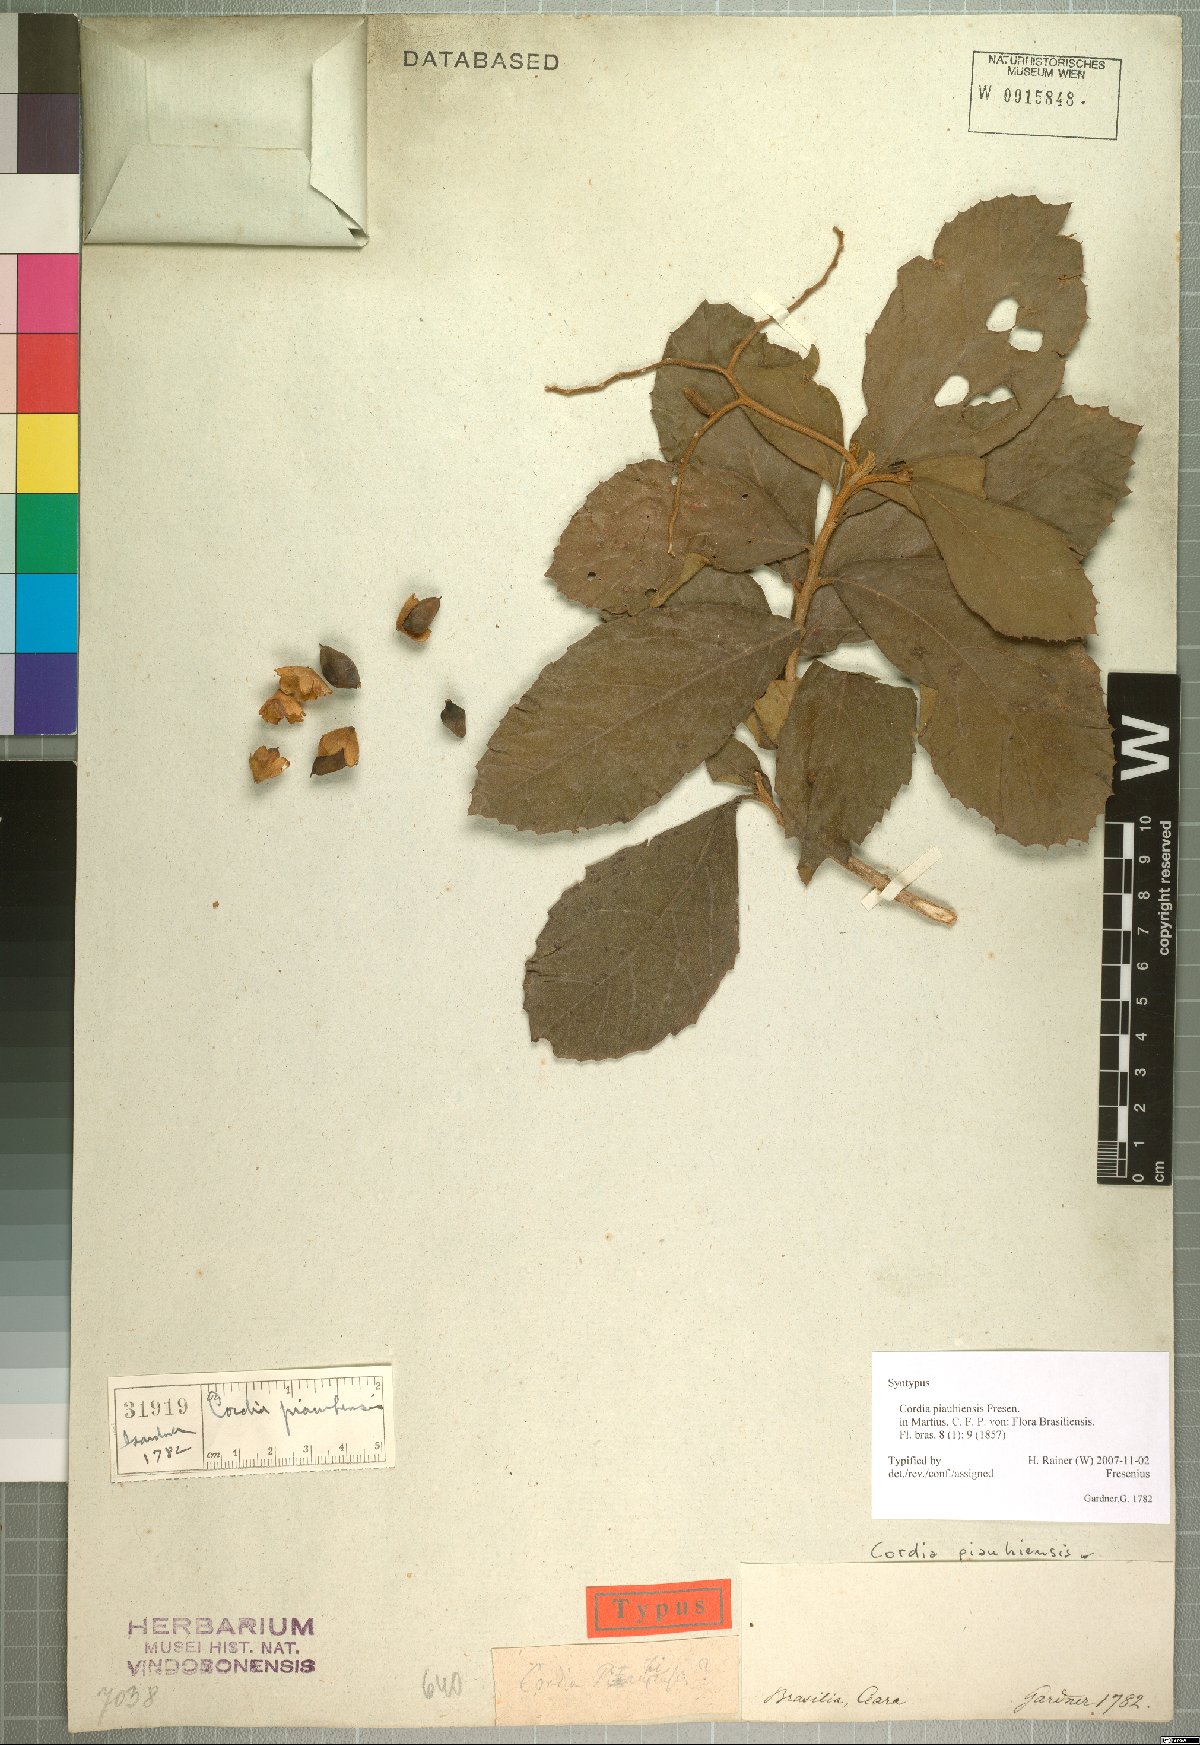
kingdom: Plantae
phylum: Tracheophyta
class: Magnoliopsida
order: Boraginales
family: Cordiaceae
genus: Cordia
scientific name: Cordia rufescens
